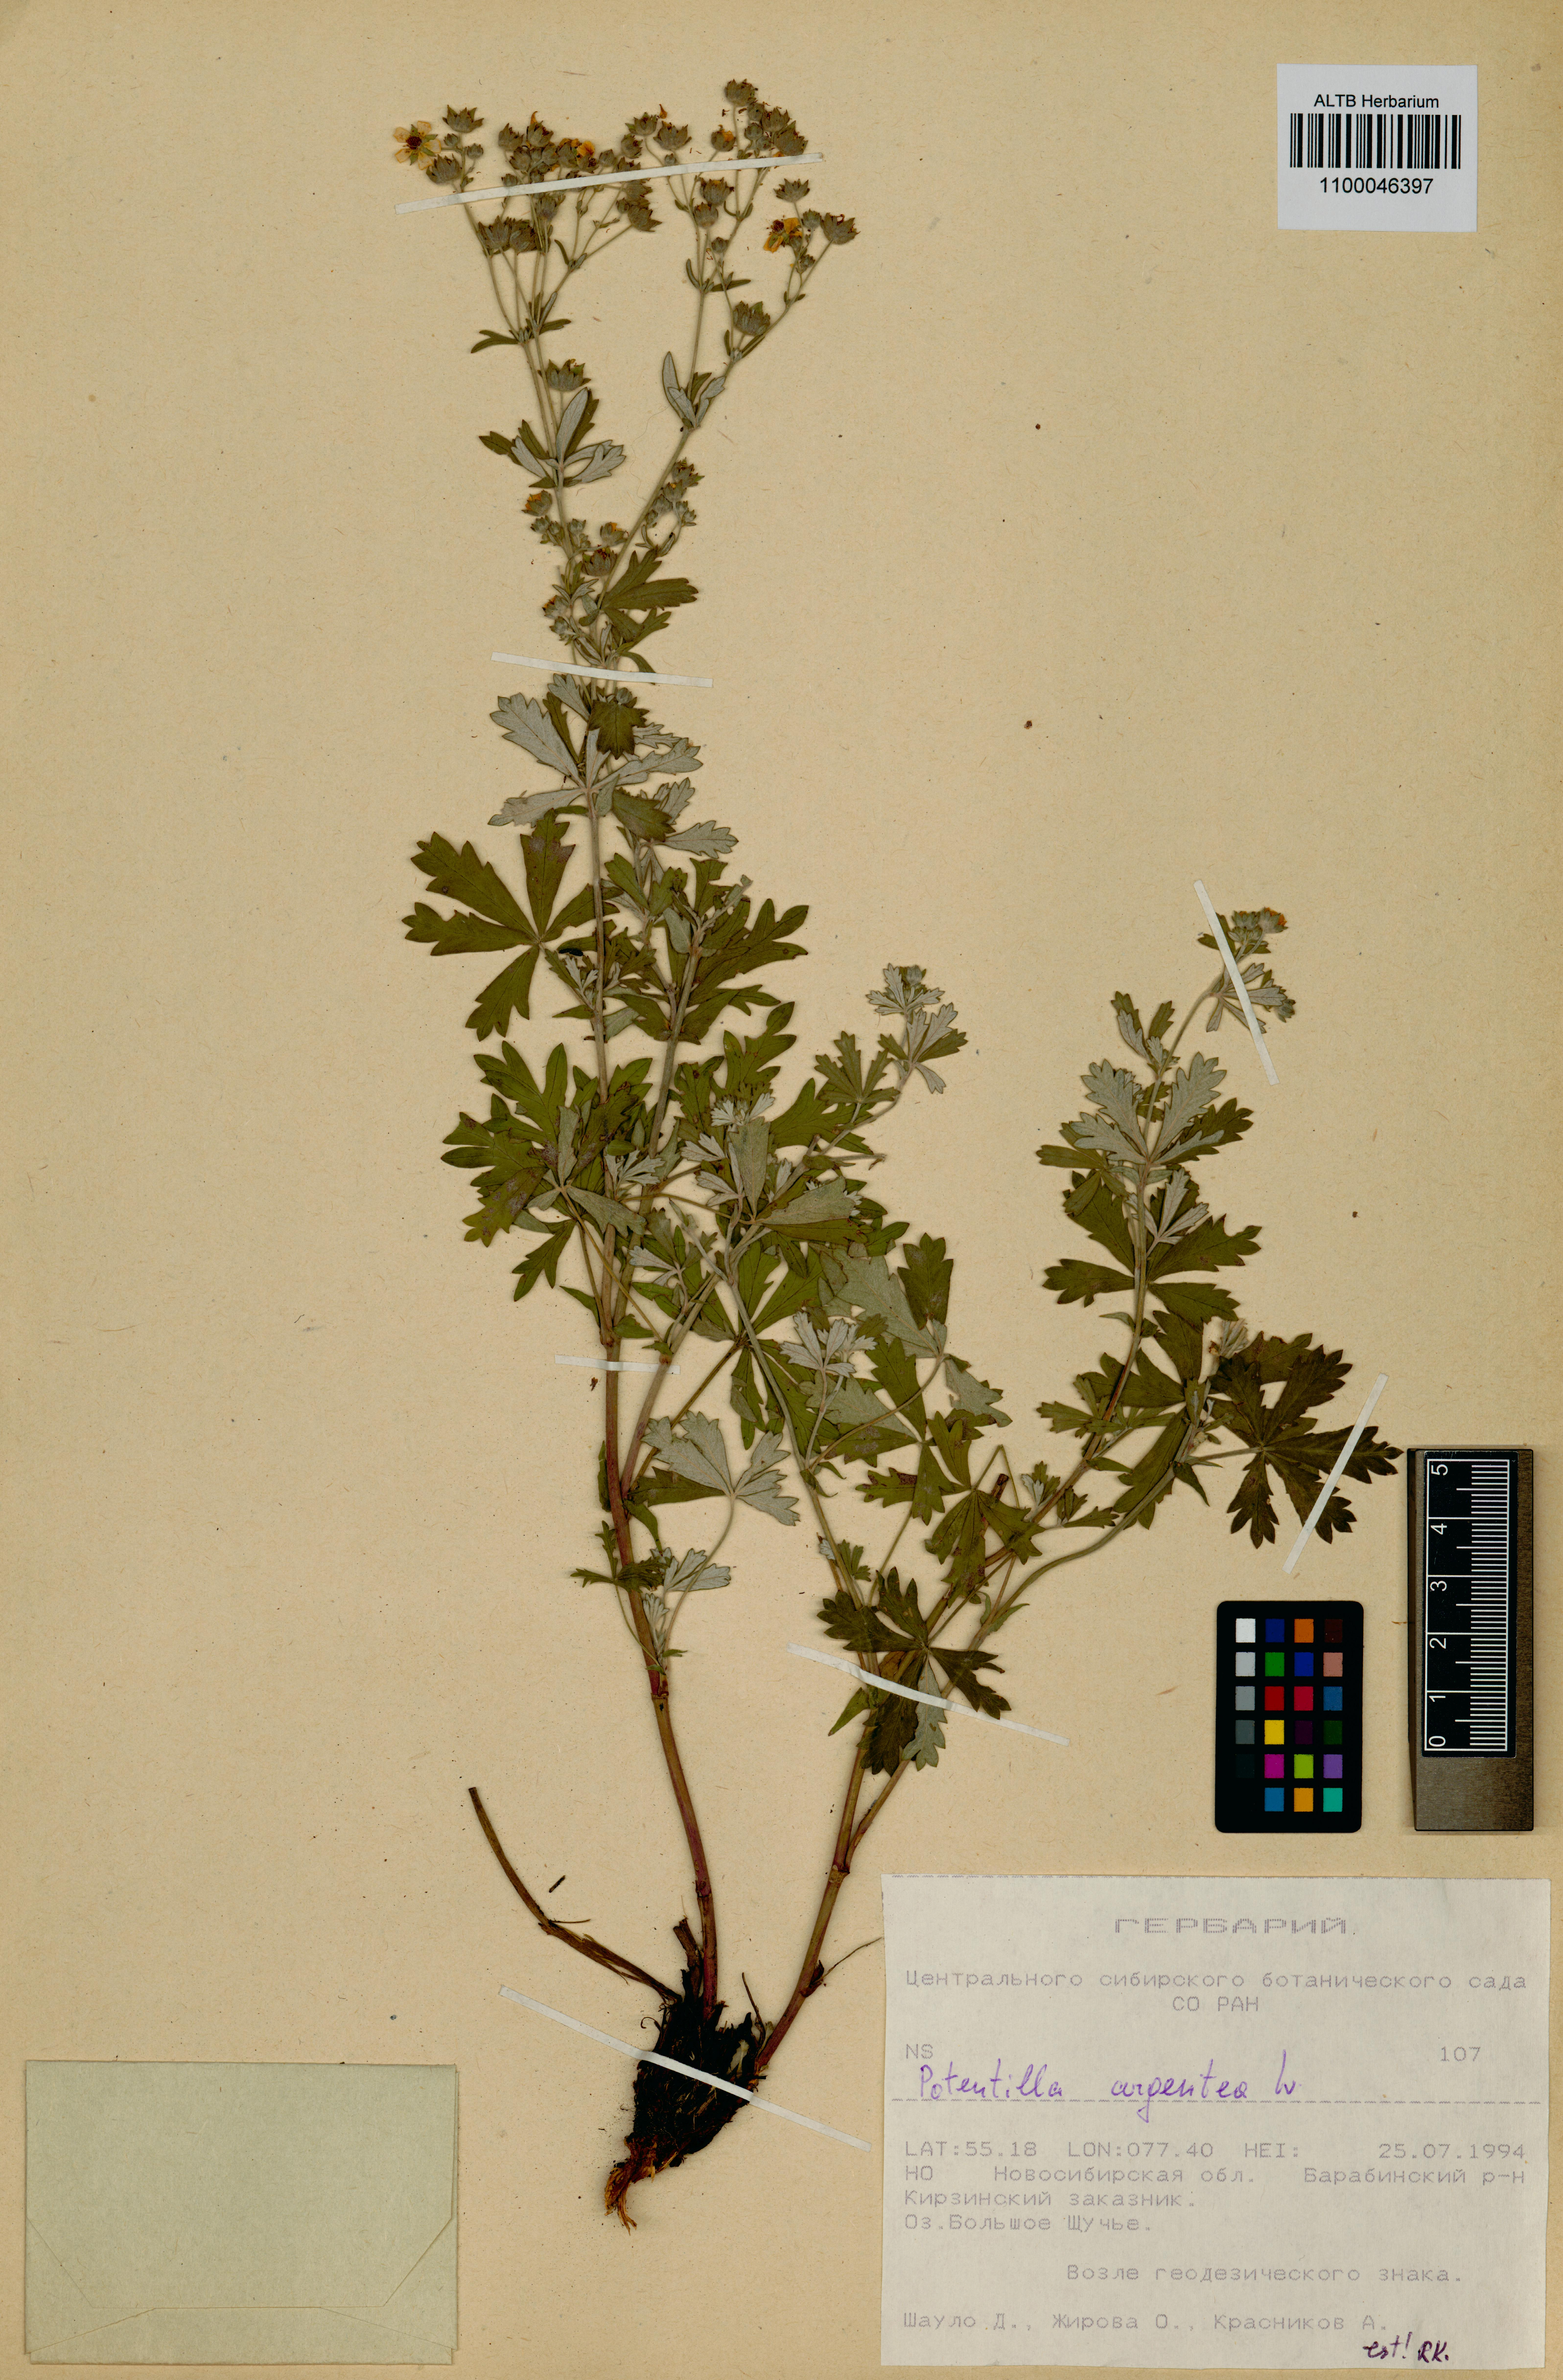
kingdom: Plantae
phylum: Tracheophyta
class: Magnoliopsida
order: Rosales
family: Rosaceae
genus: Potentilla
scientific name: Potentilla argentea
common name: Hoary cinquefoil
